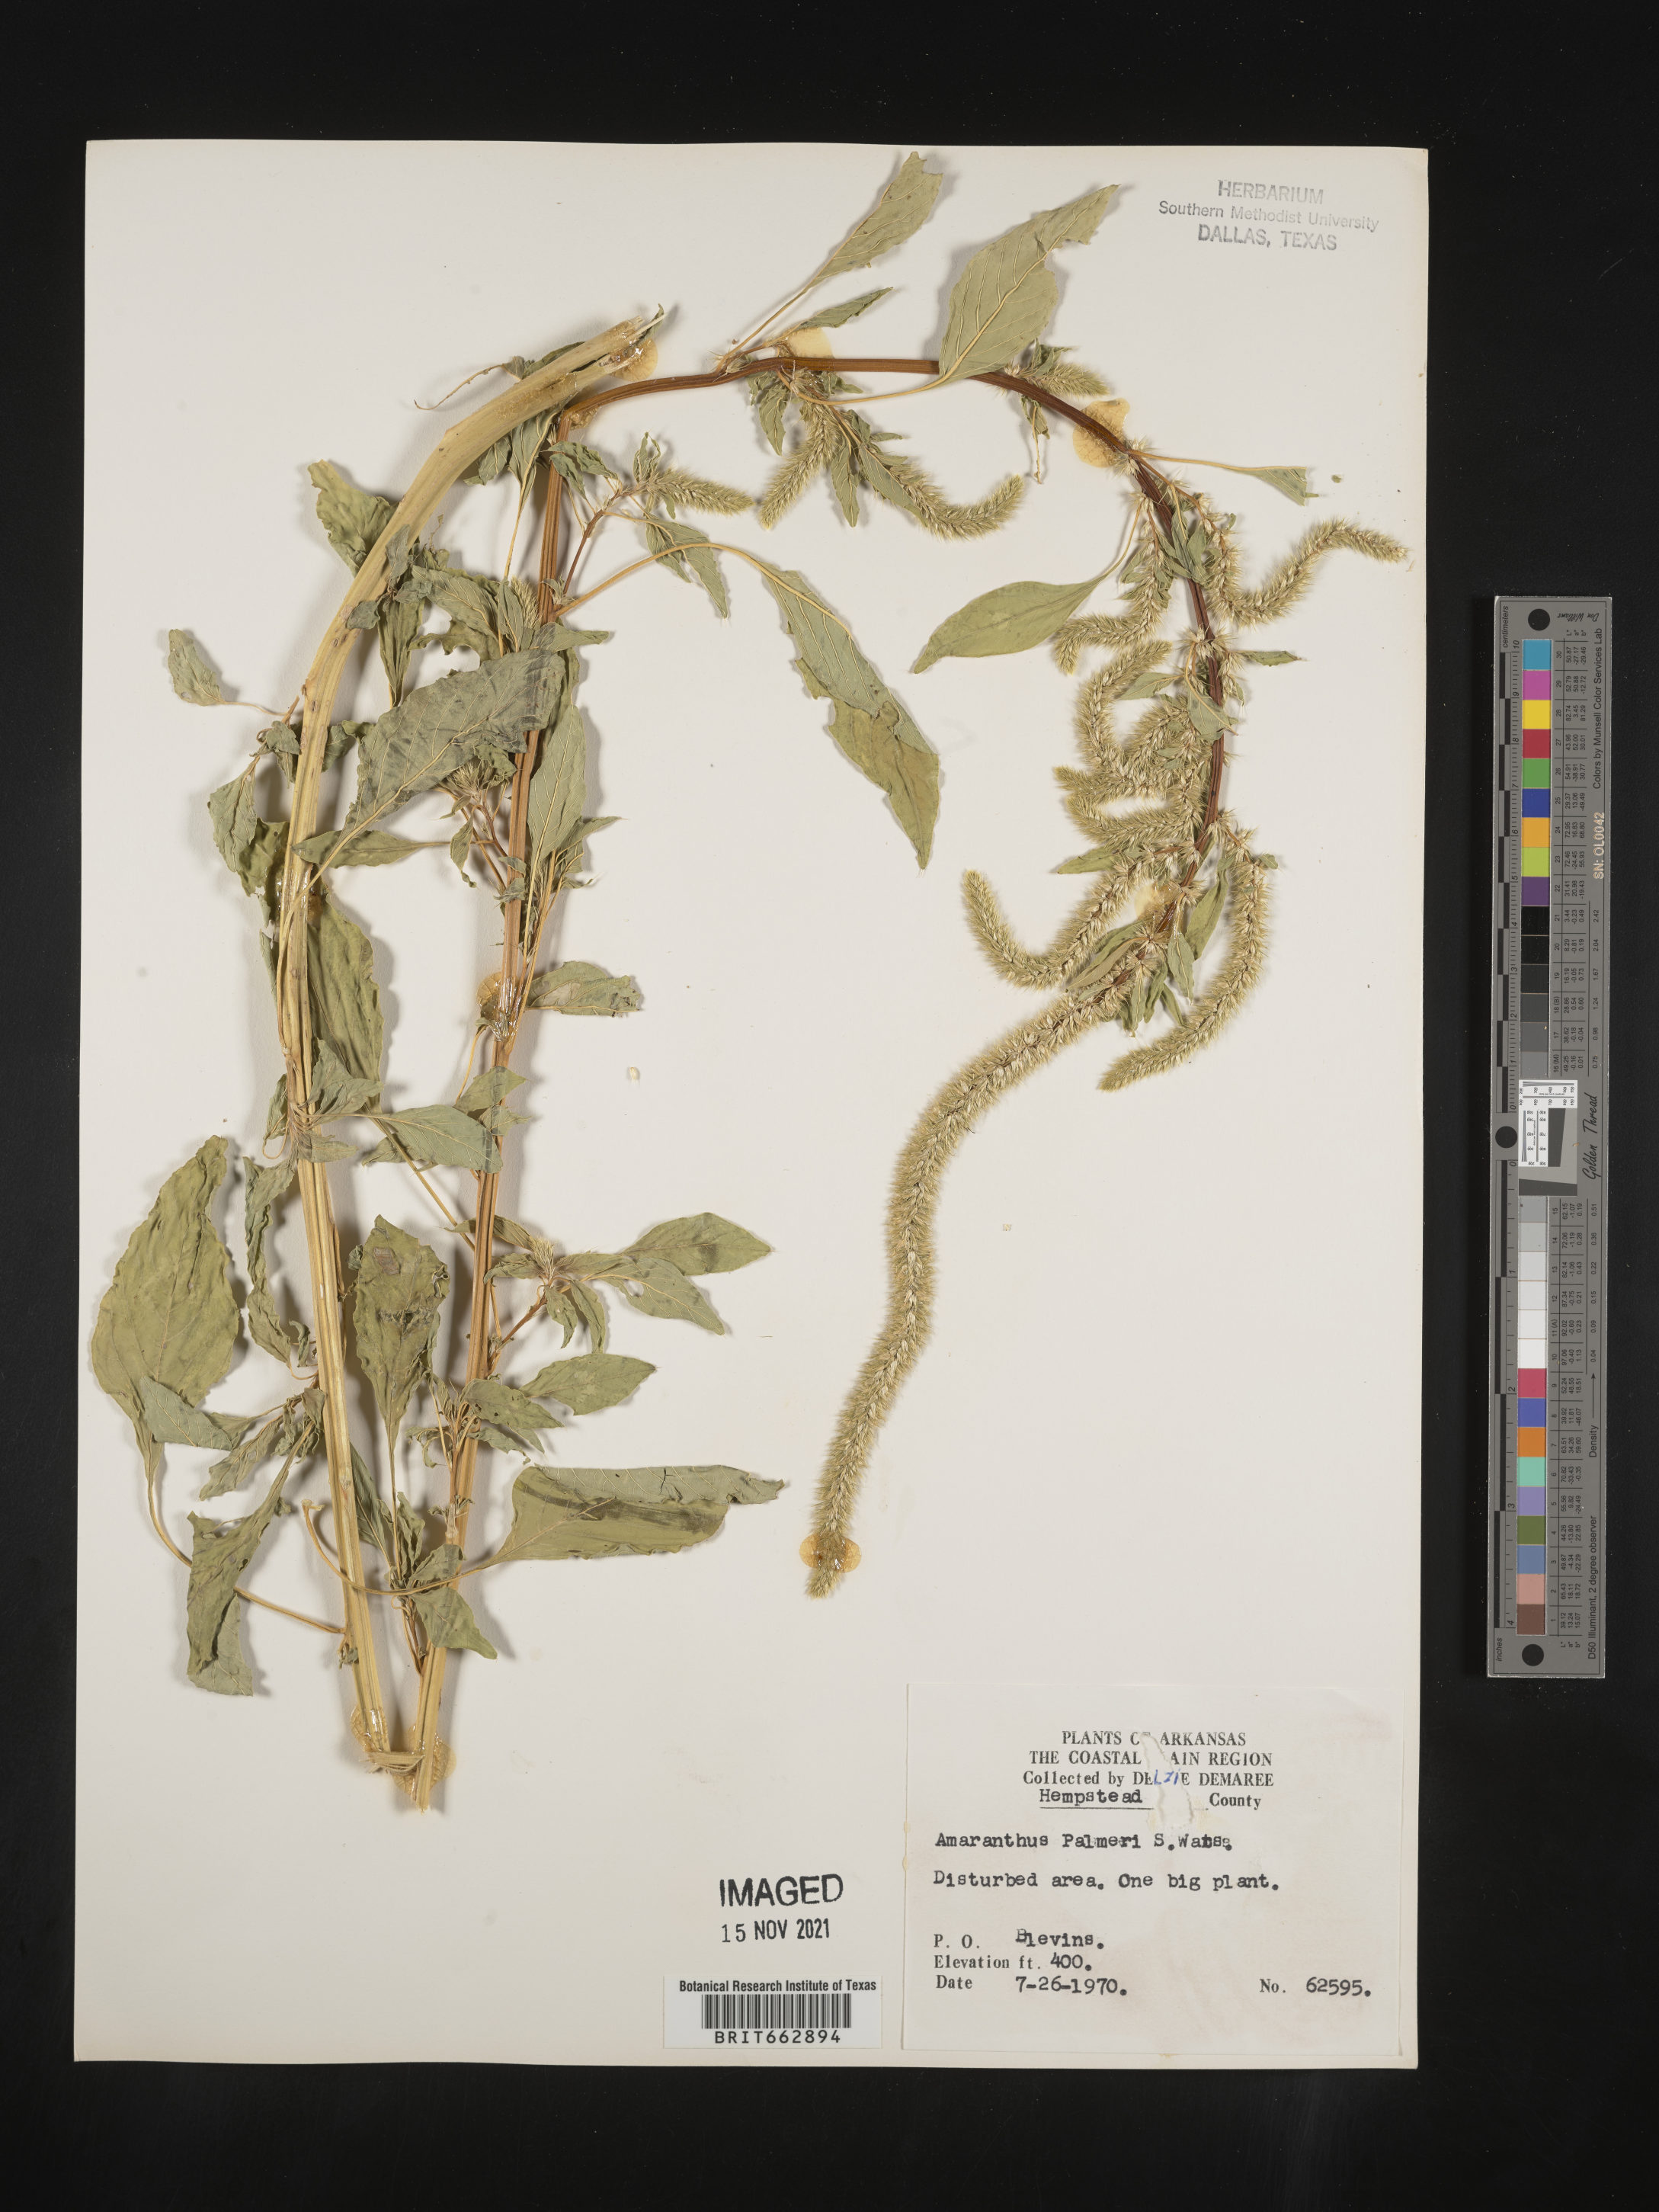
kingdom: Plantae
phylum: Tracheophyta
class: Magnoliopsida
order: Caryophyllales
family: Amaranthaceae
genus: Amaranthus
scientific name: Amaranthus palmeri
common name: Dioecious amaranth
